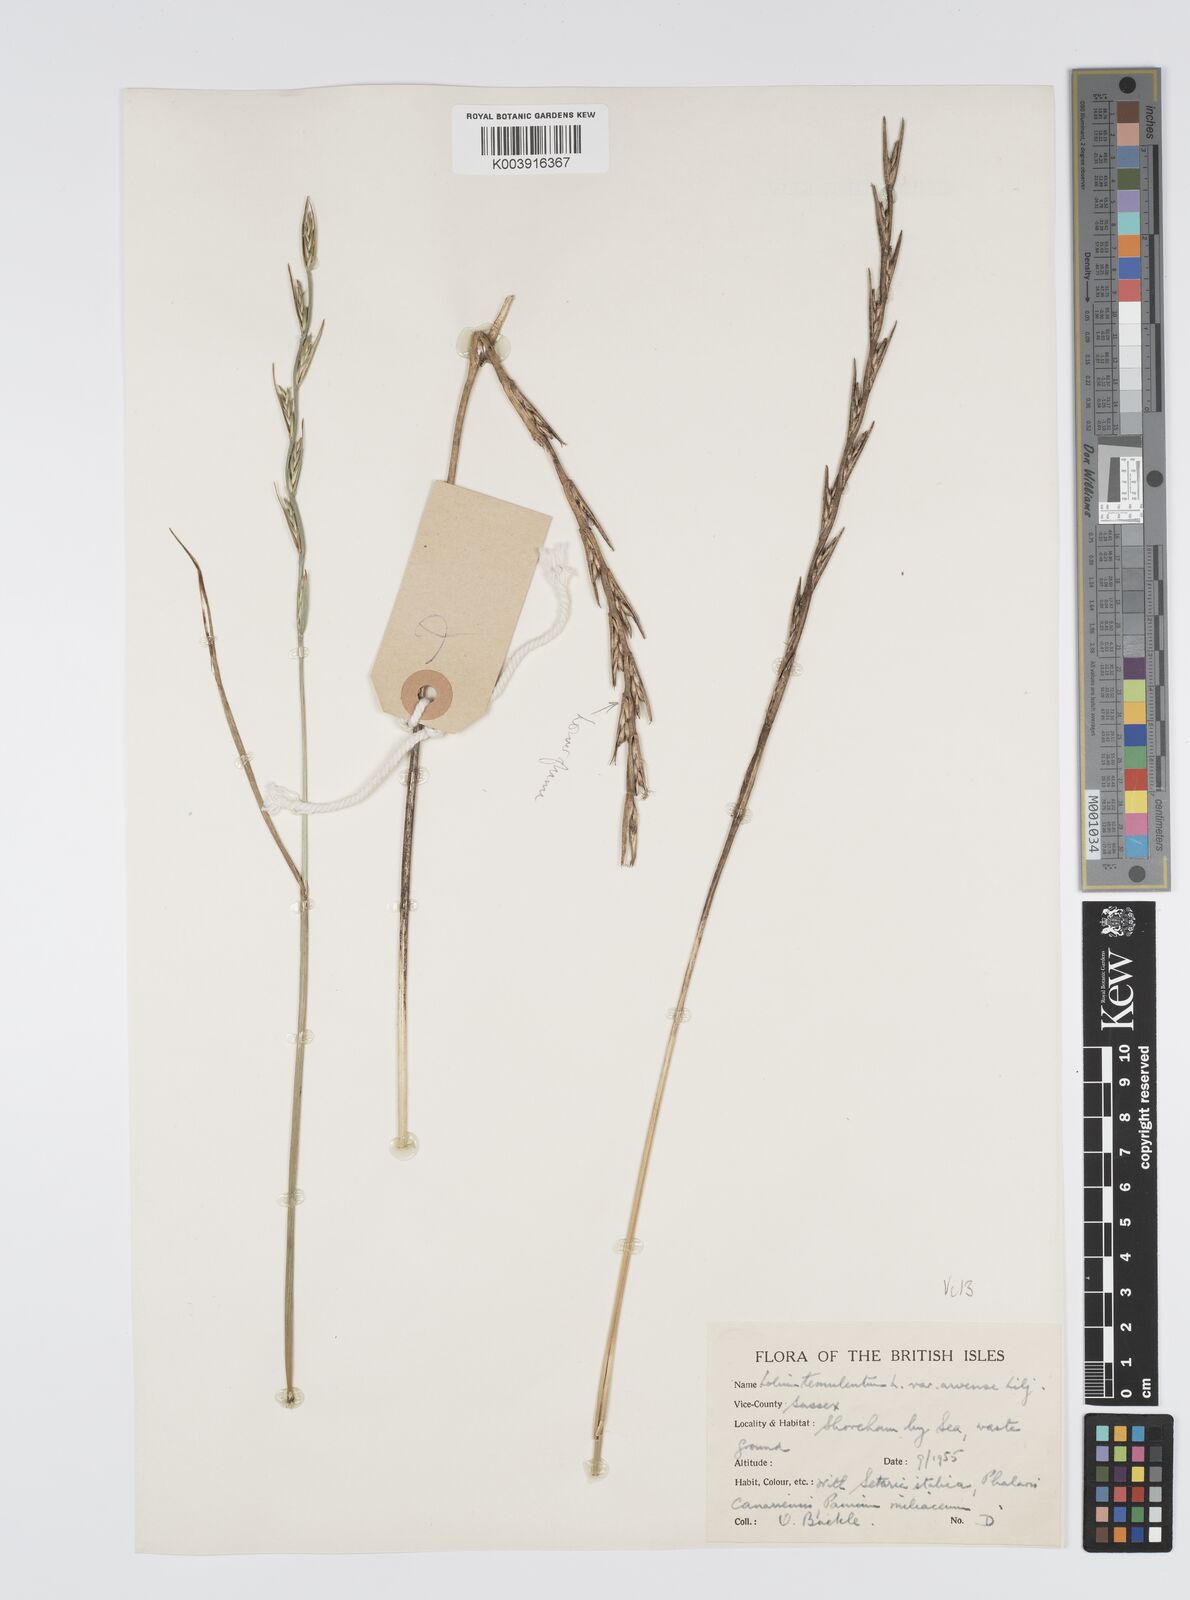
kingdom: Plantae
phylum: Tracheophyta
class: Liliopsida
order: Poales
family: Poaceae
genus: Lolium
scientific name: Lolium temulentum
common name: Darnel
